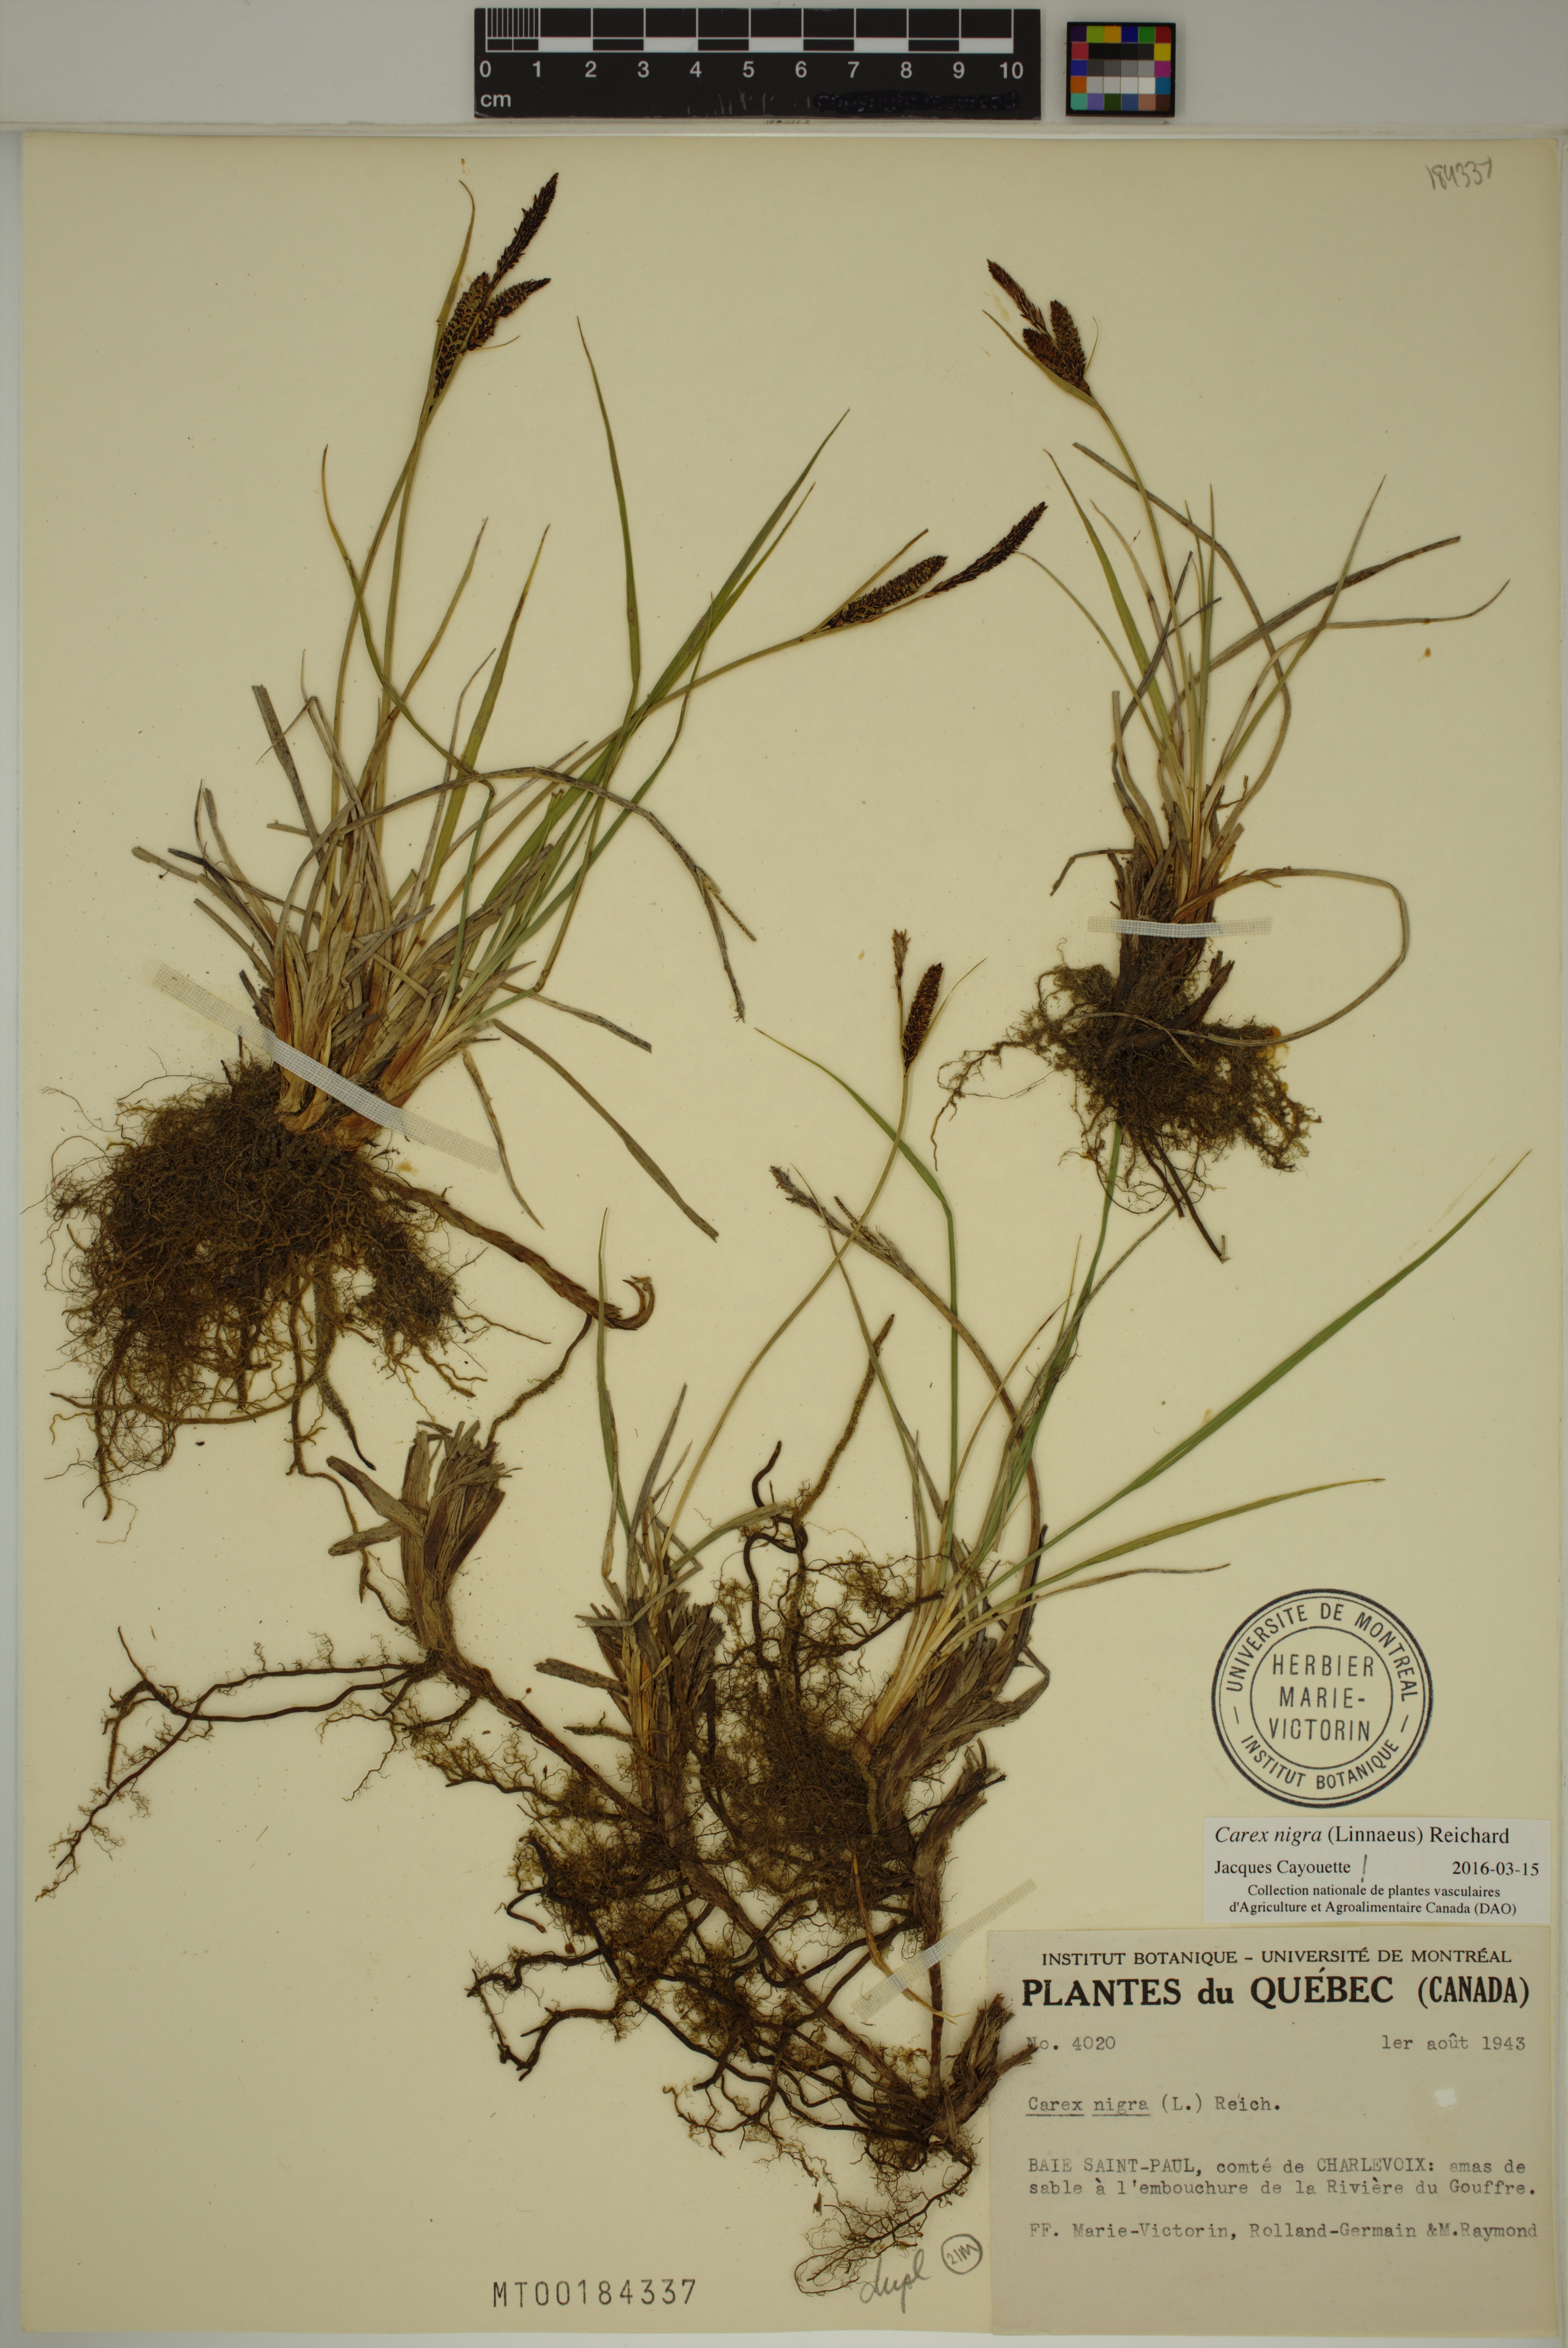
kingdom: Plantae
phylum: Tracheophyta
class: Liliopsida
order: Poales
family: Cyperaceae
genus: Carex
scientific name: Carex nigra
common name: Common sedge
